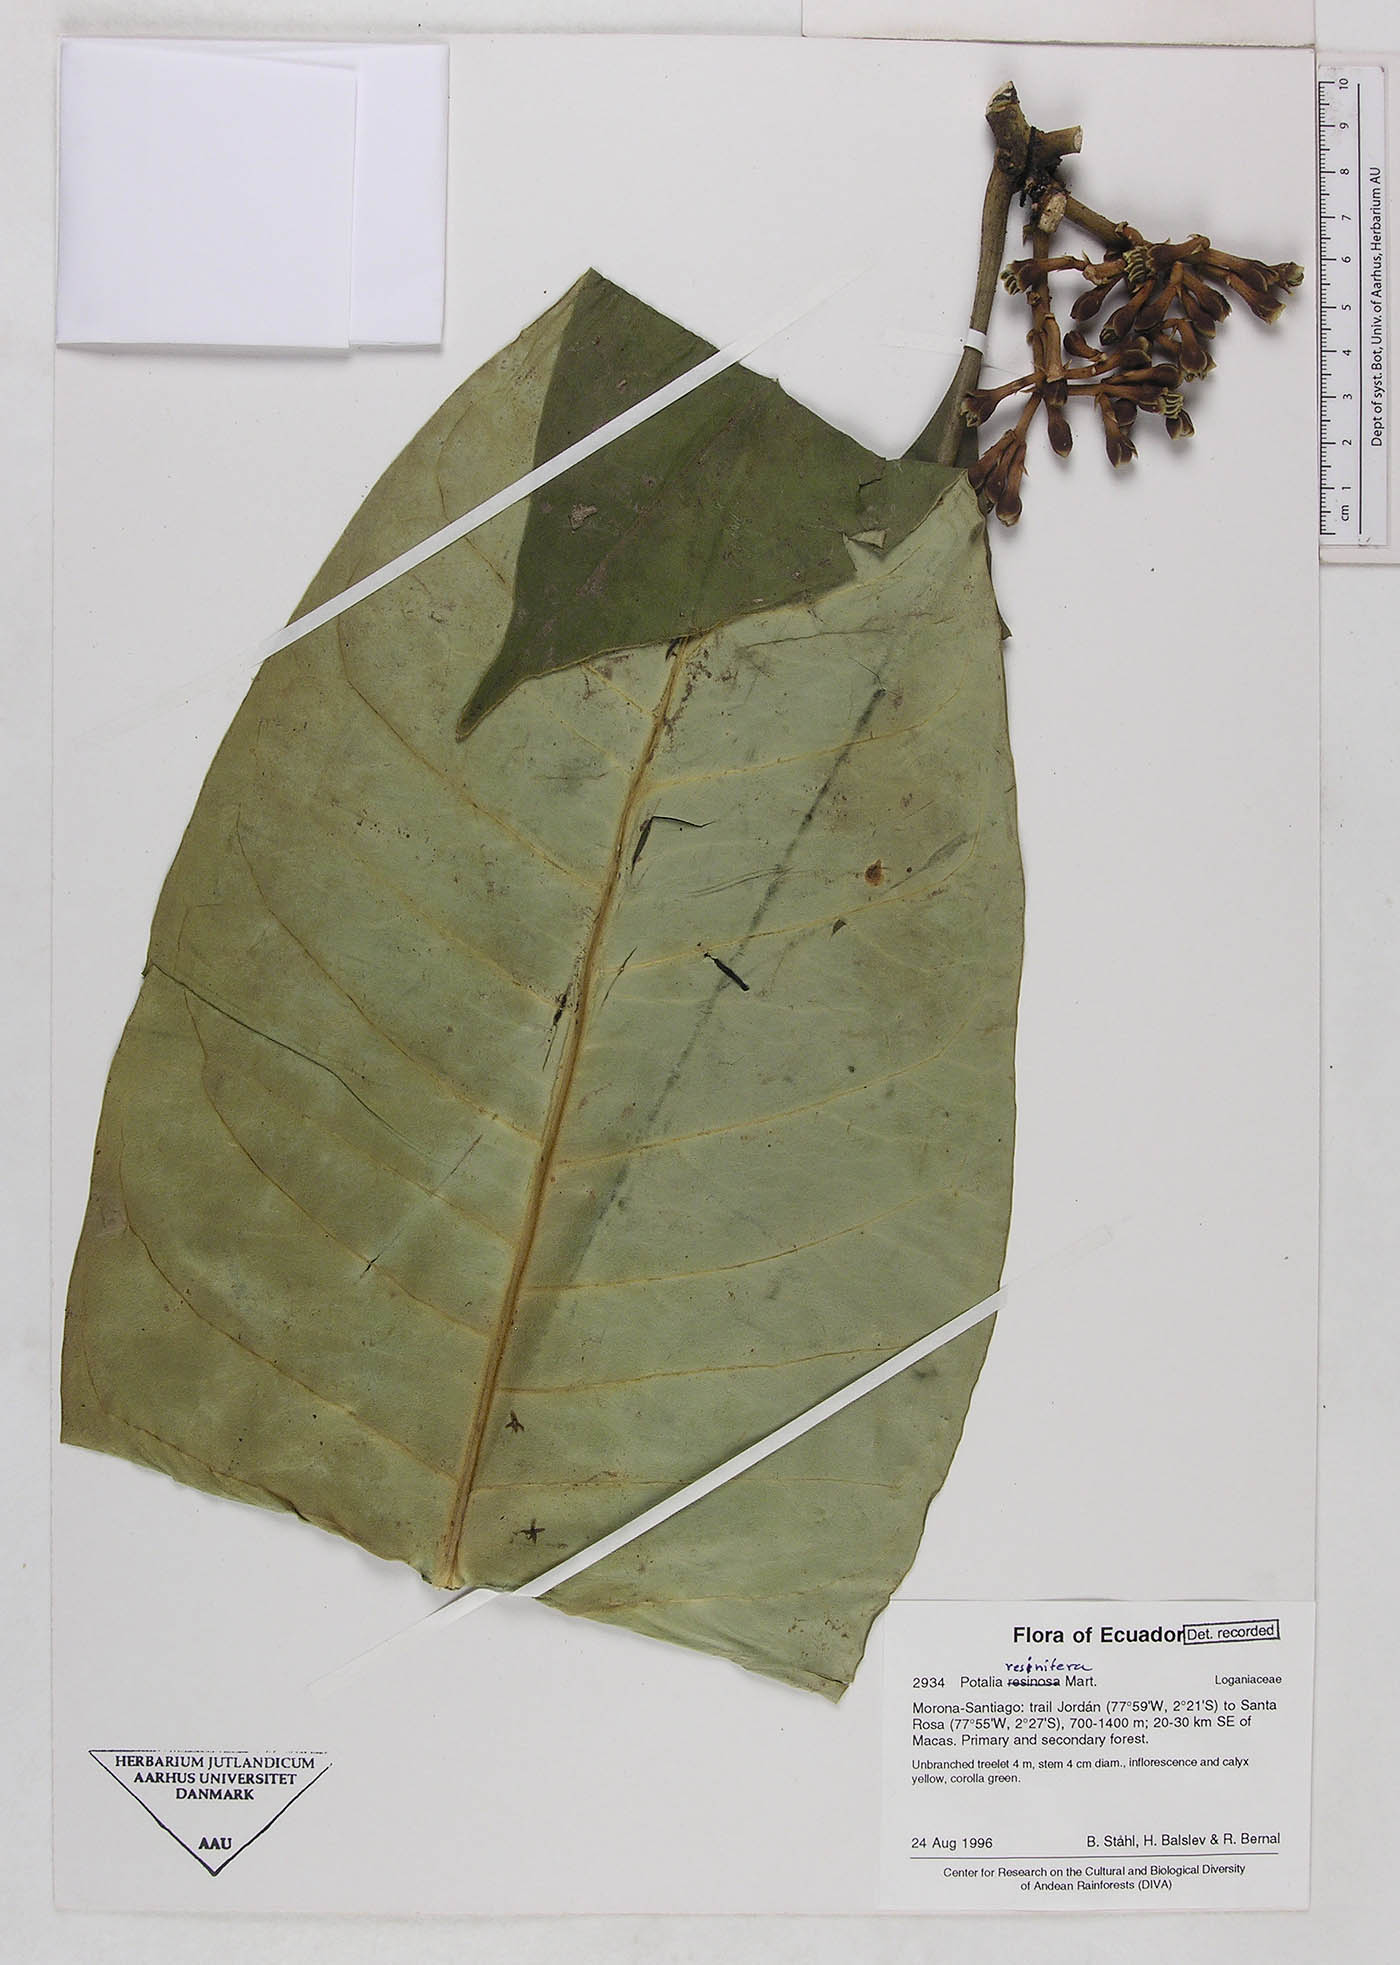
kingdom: Plantae
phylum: Tracheophyta
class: Magnoliopsida
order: Gentianales
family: Gentianaceae
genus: Potalia
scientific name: Potalia resinifera
